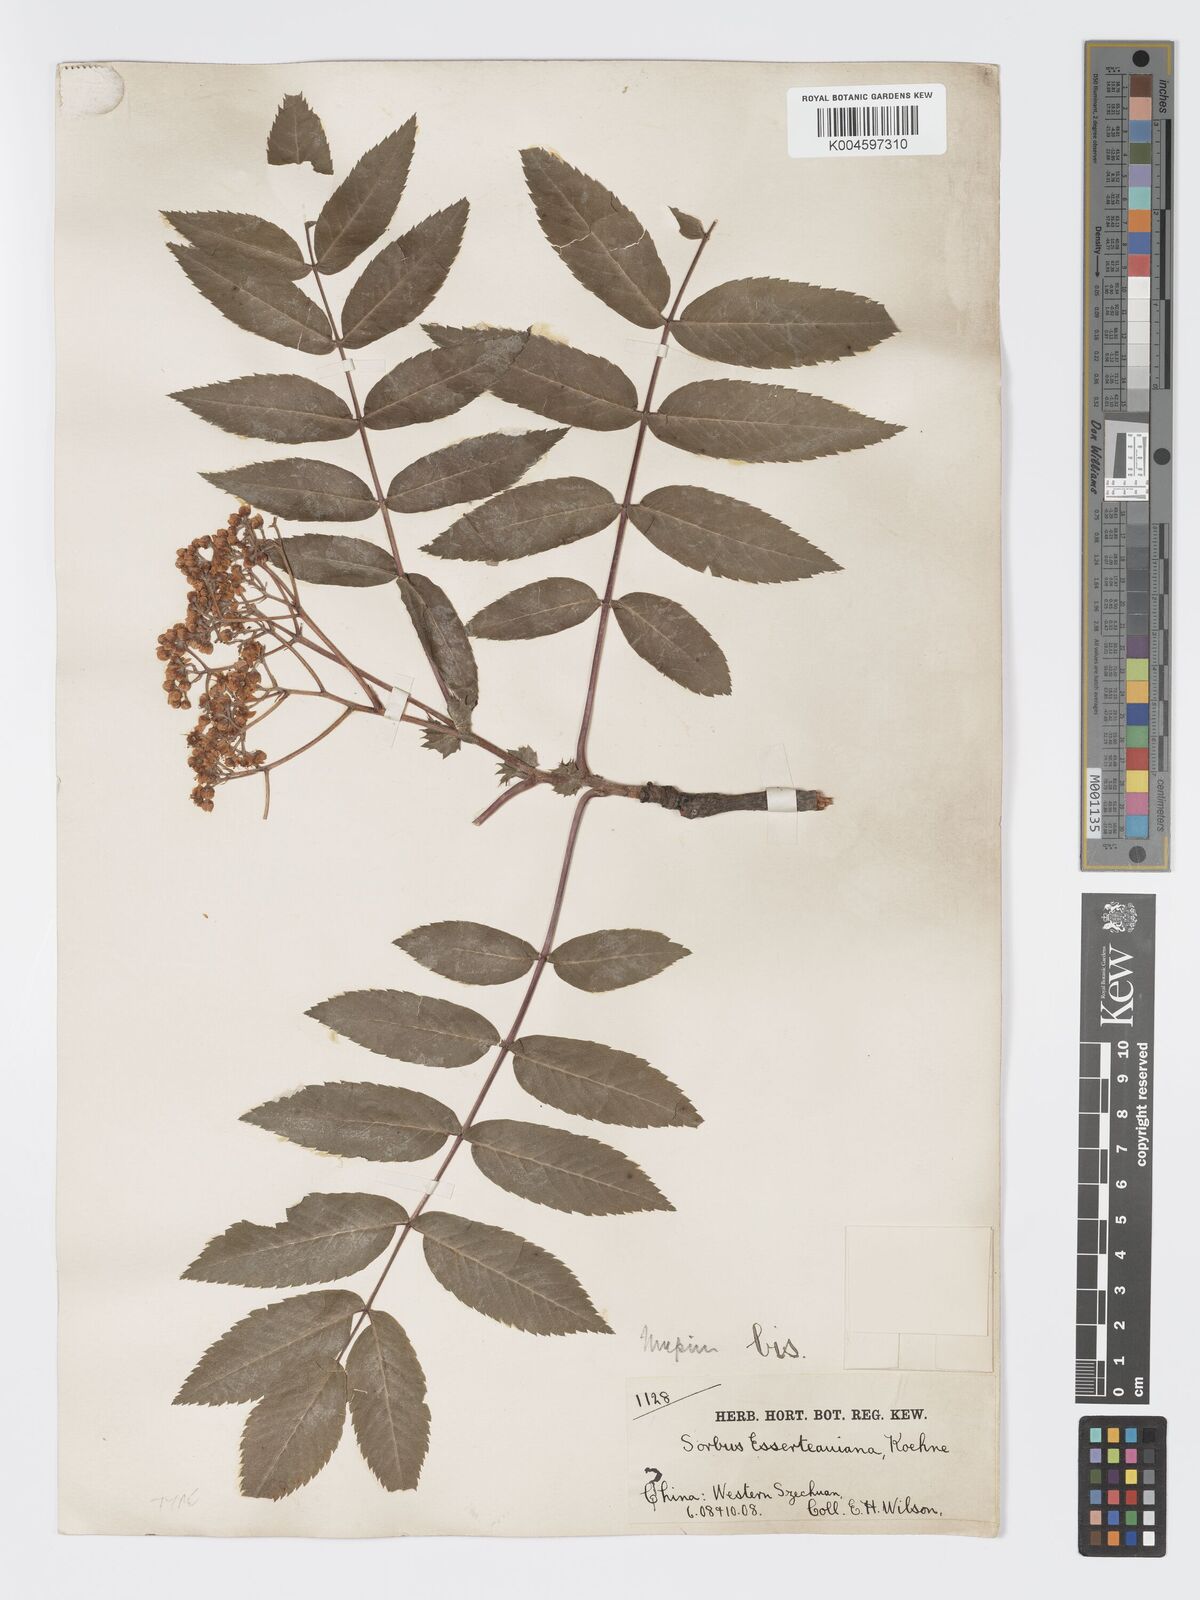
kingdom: Plantae
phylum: Tracheophyta
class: Magnoliopsida
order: Rosales
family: Rosaceae
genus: Sorbus
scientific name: Sorbus esserteauiana
